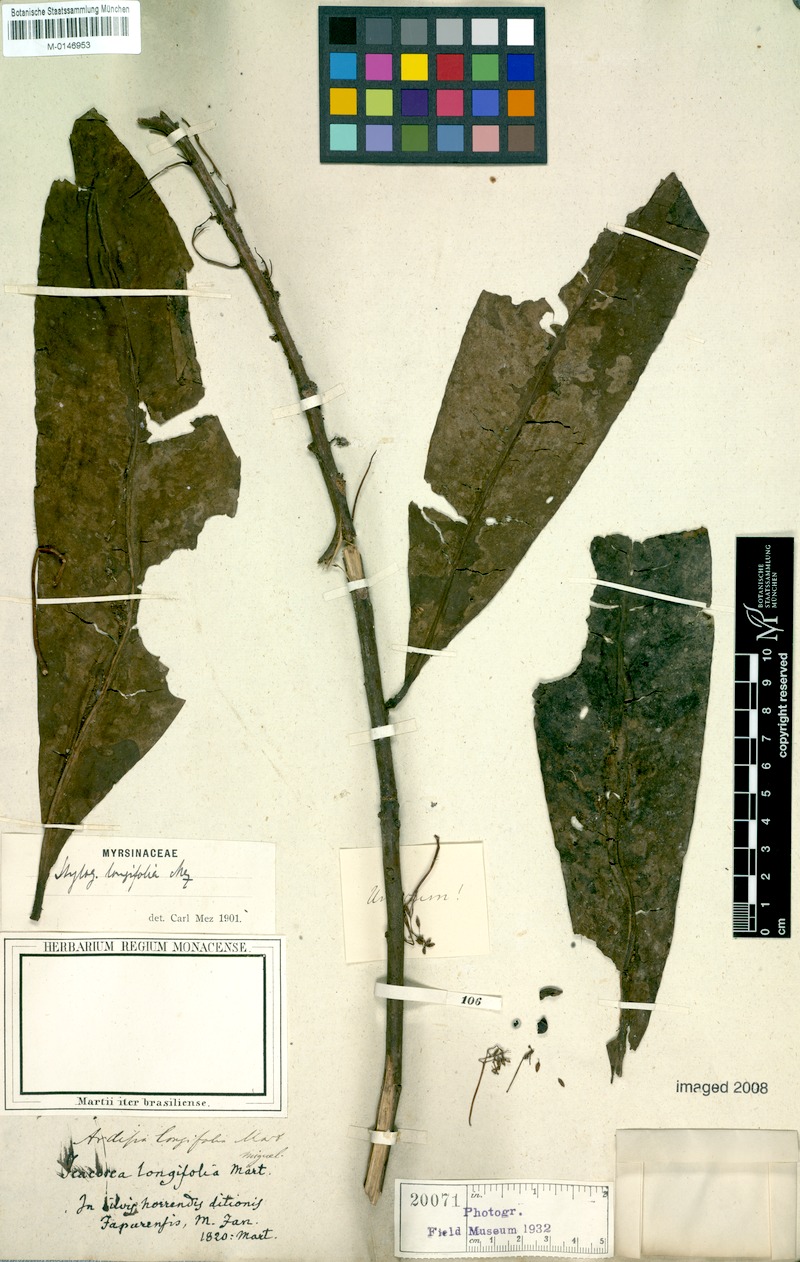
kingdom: Plantae
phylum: Tracheophyta
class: Magnoliopsida
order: Ericales
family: Primulaceae
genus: Stylogyne
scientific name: Stylogyne longifolia
